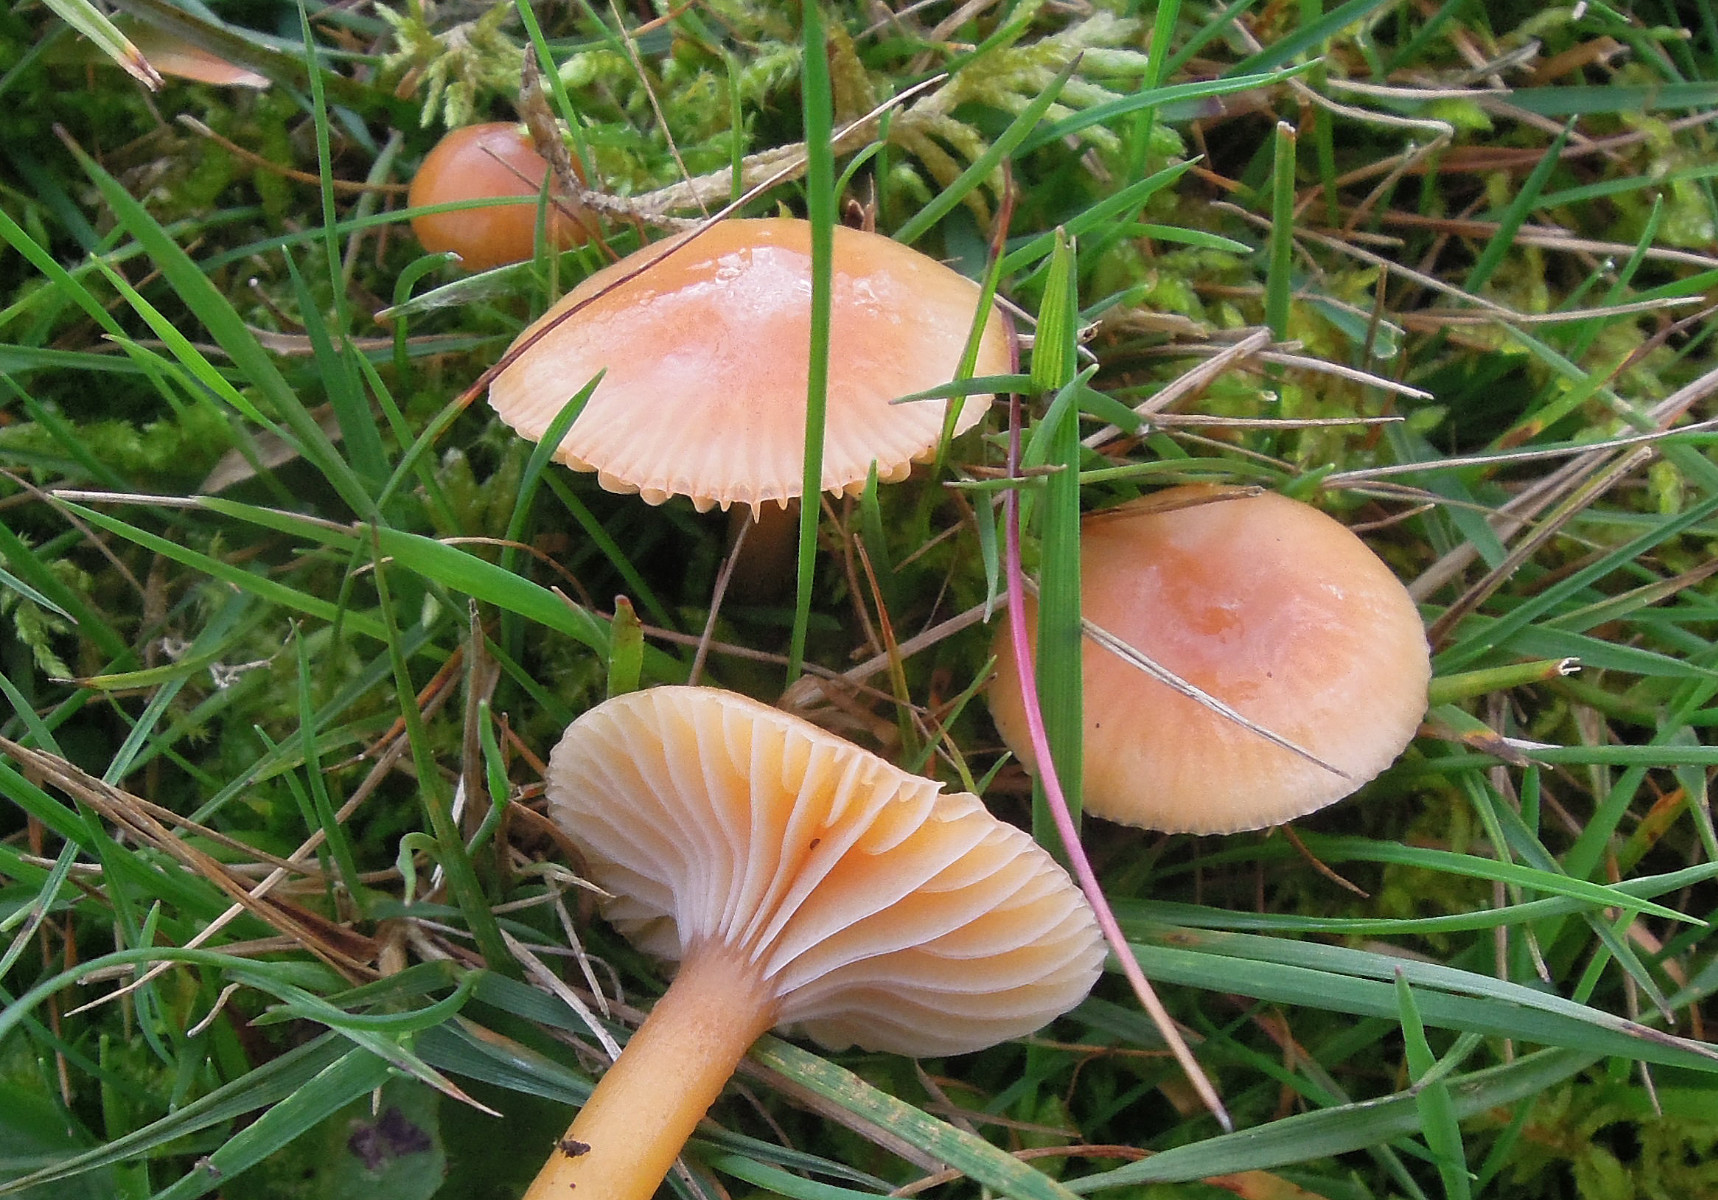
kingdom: Fungi
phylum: Basidiomycota
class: Agaricomycetes
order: Agaricales
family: Hygrophoraceae
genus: Gliophorus
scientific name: Gliophorus laetus
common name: brusk-vokshat
